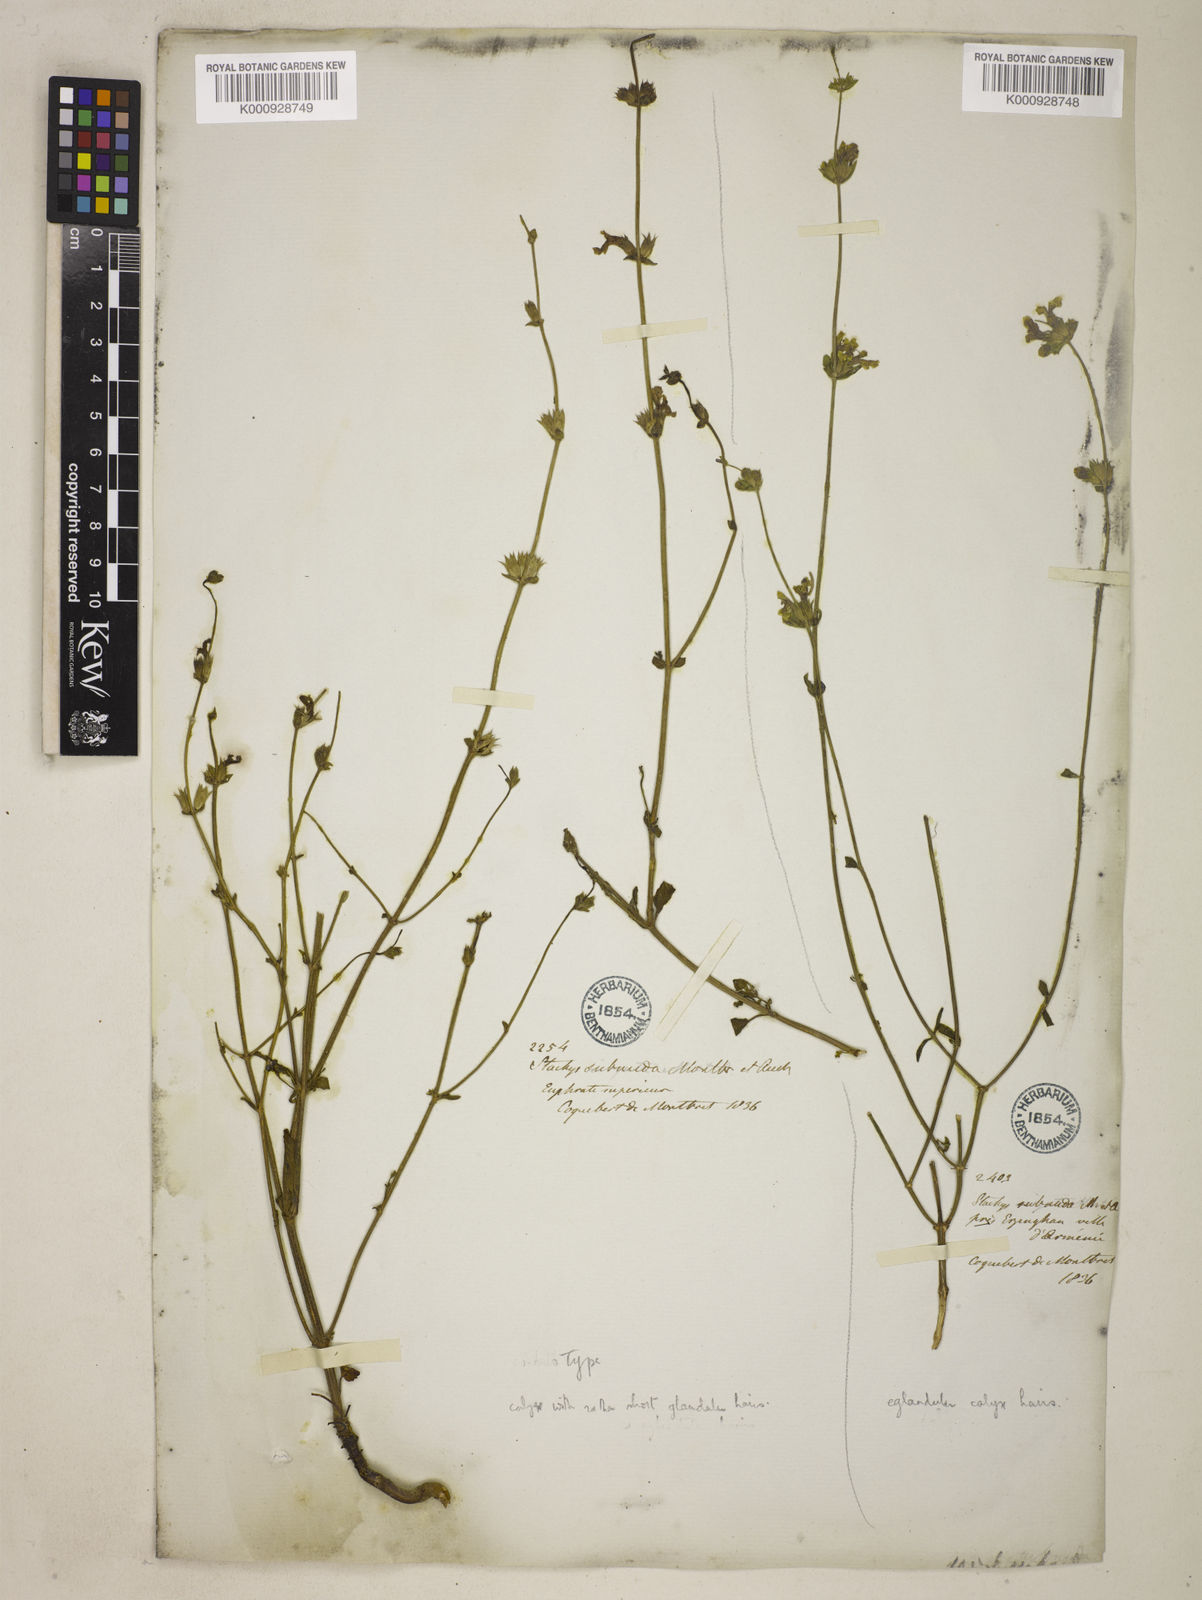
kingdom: Plantae
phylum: Tracheophyta
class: Magnoliopsida
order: Lamiales
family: Lamiaceae
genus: Stachys
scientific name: Stachys subnuda
